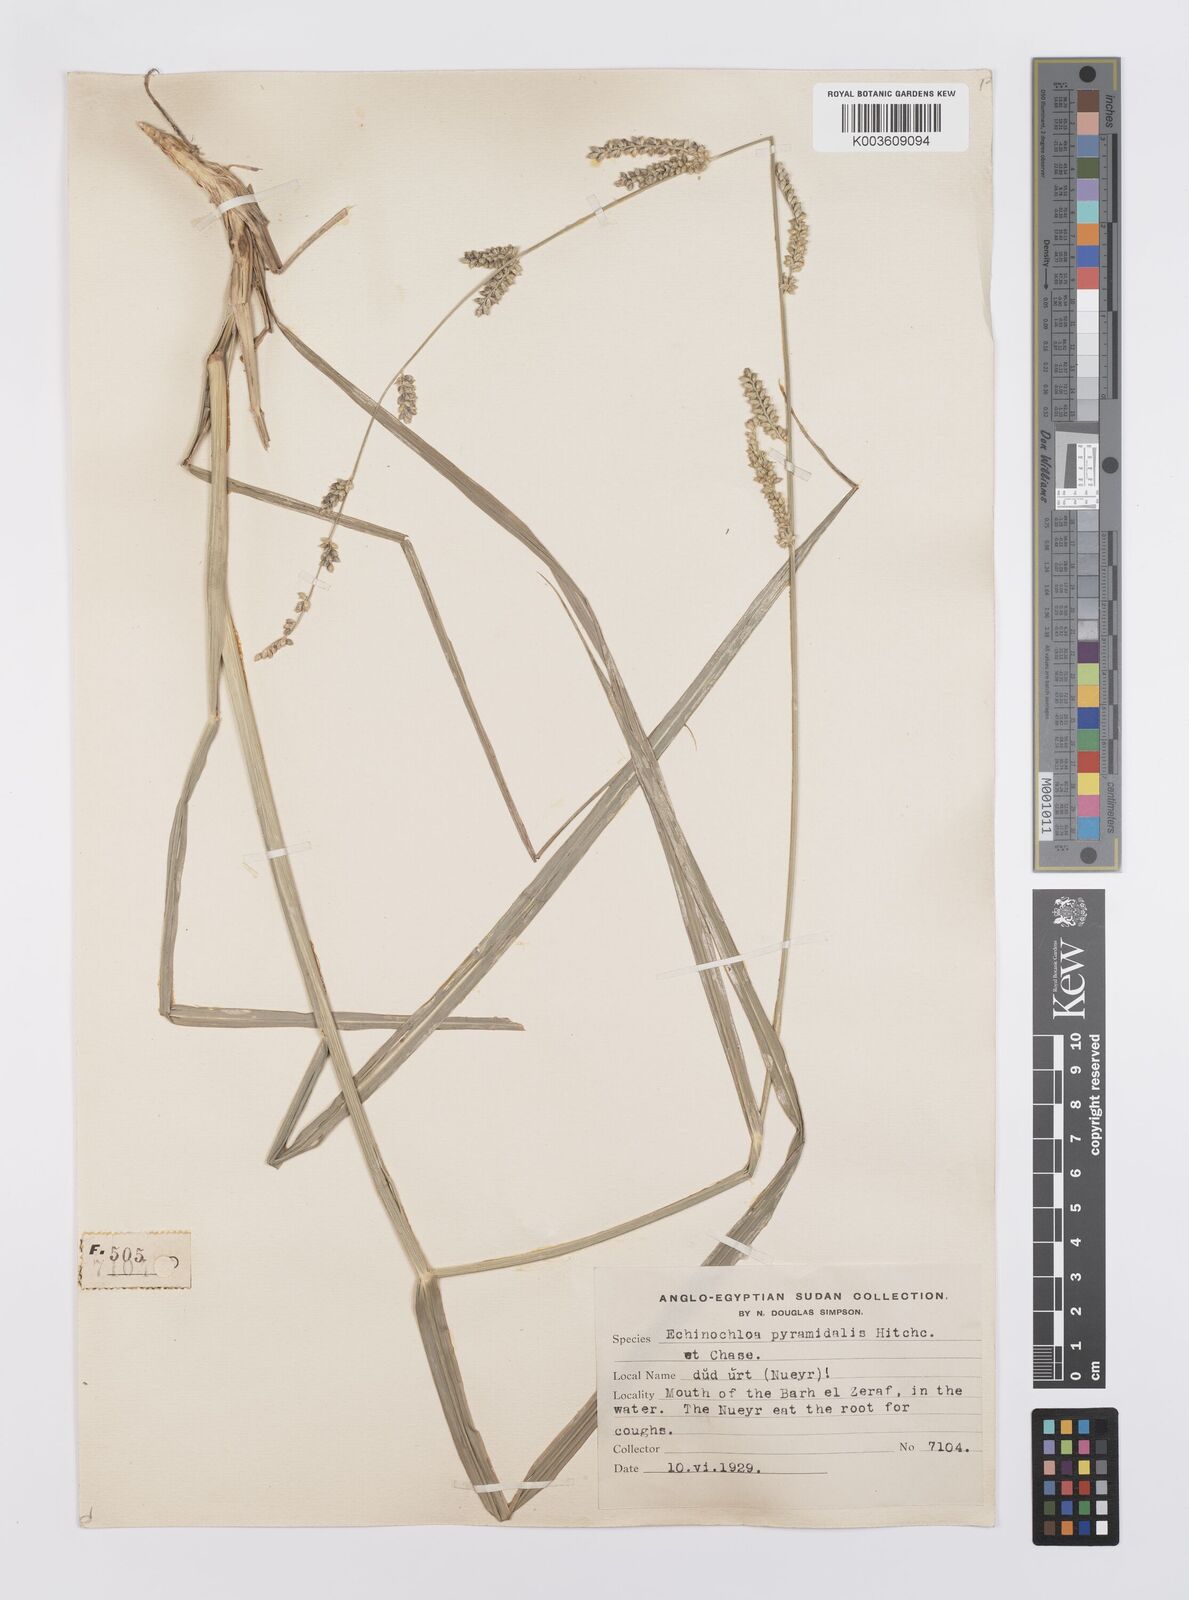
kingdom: Plantae
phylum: Tracheophyta
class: Liliopsida
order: Poales
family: Poaceae
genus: Echinochloa
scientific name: Echinochloa pyramidalis
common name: Antelope grass
